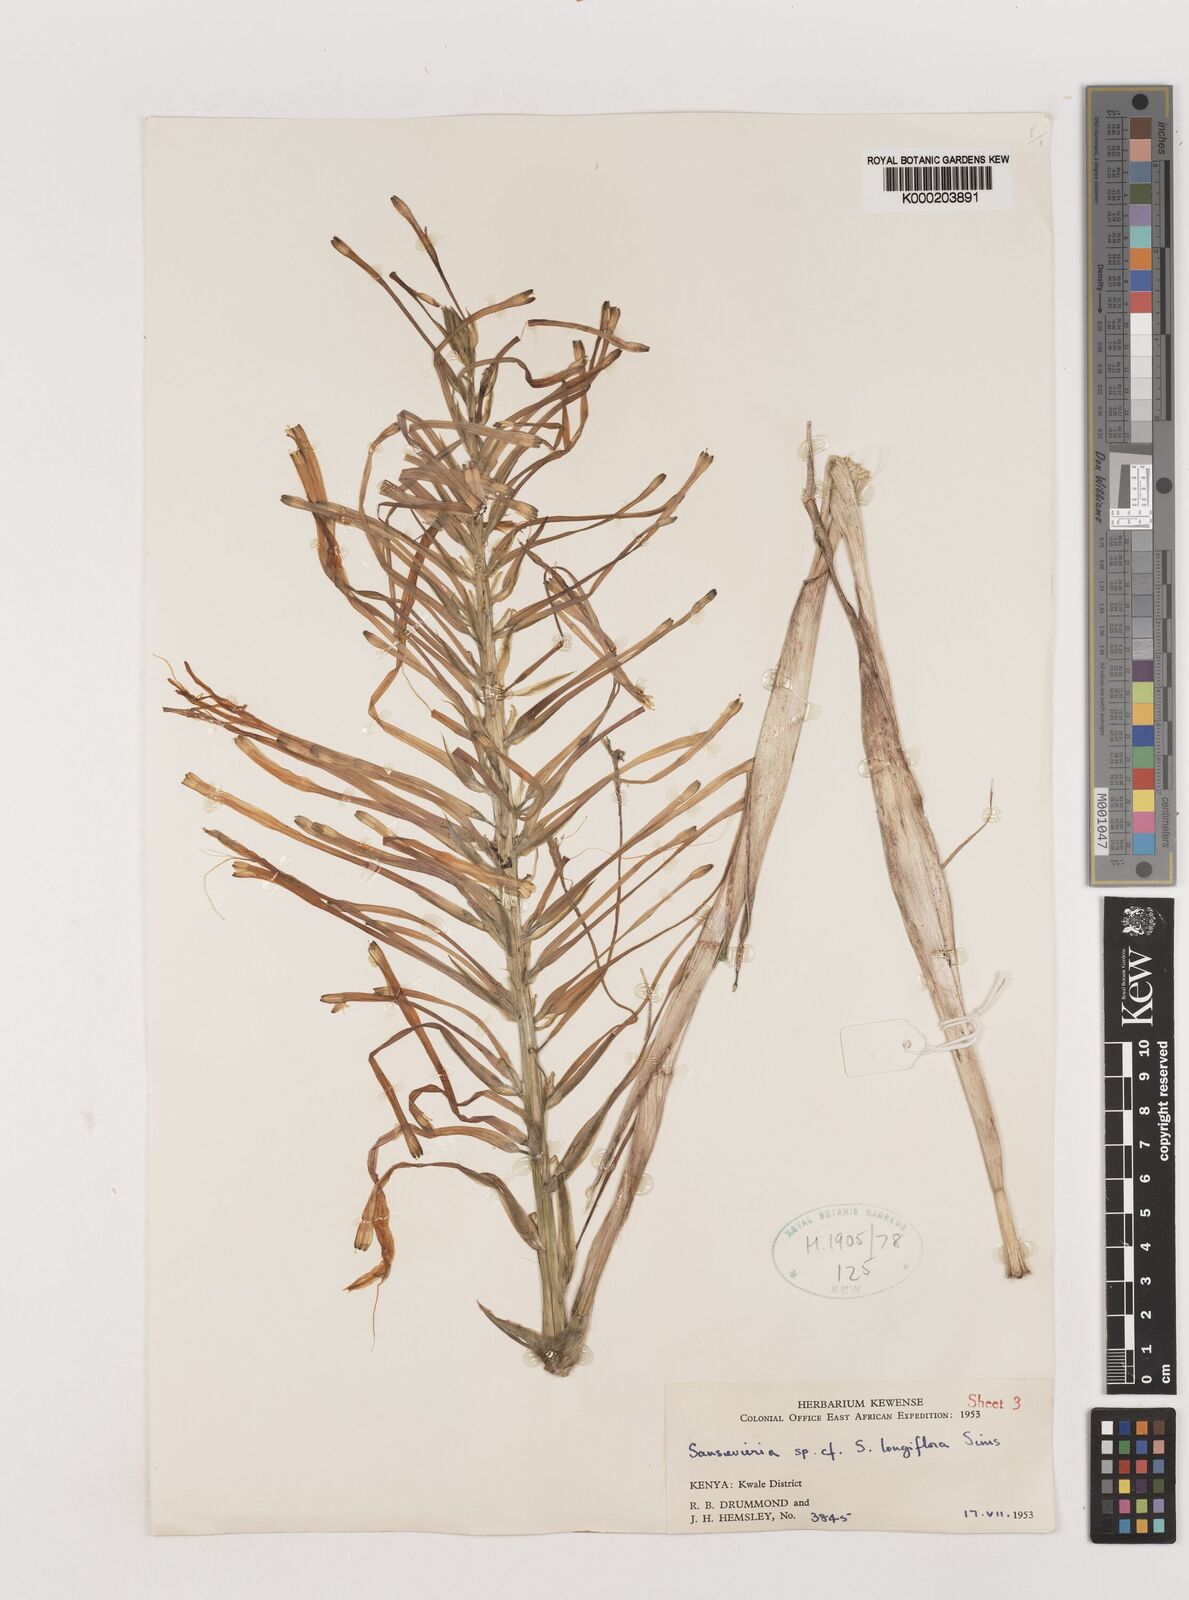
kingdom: Plantae
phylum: Tracheophyta
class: Liliopsida
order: Asparagales
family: Asparagaceae
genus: Dracaena
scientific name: Dracaena conspicua
